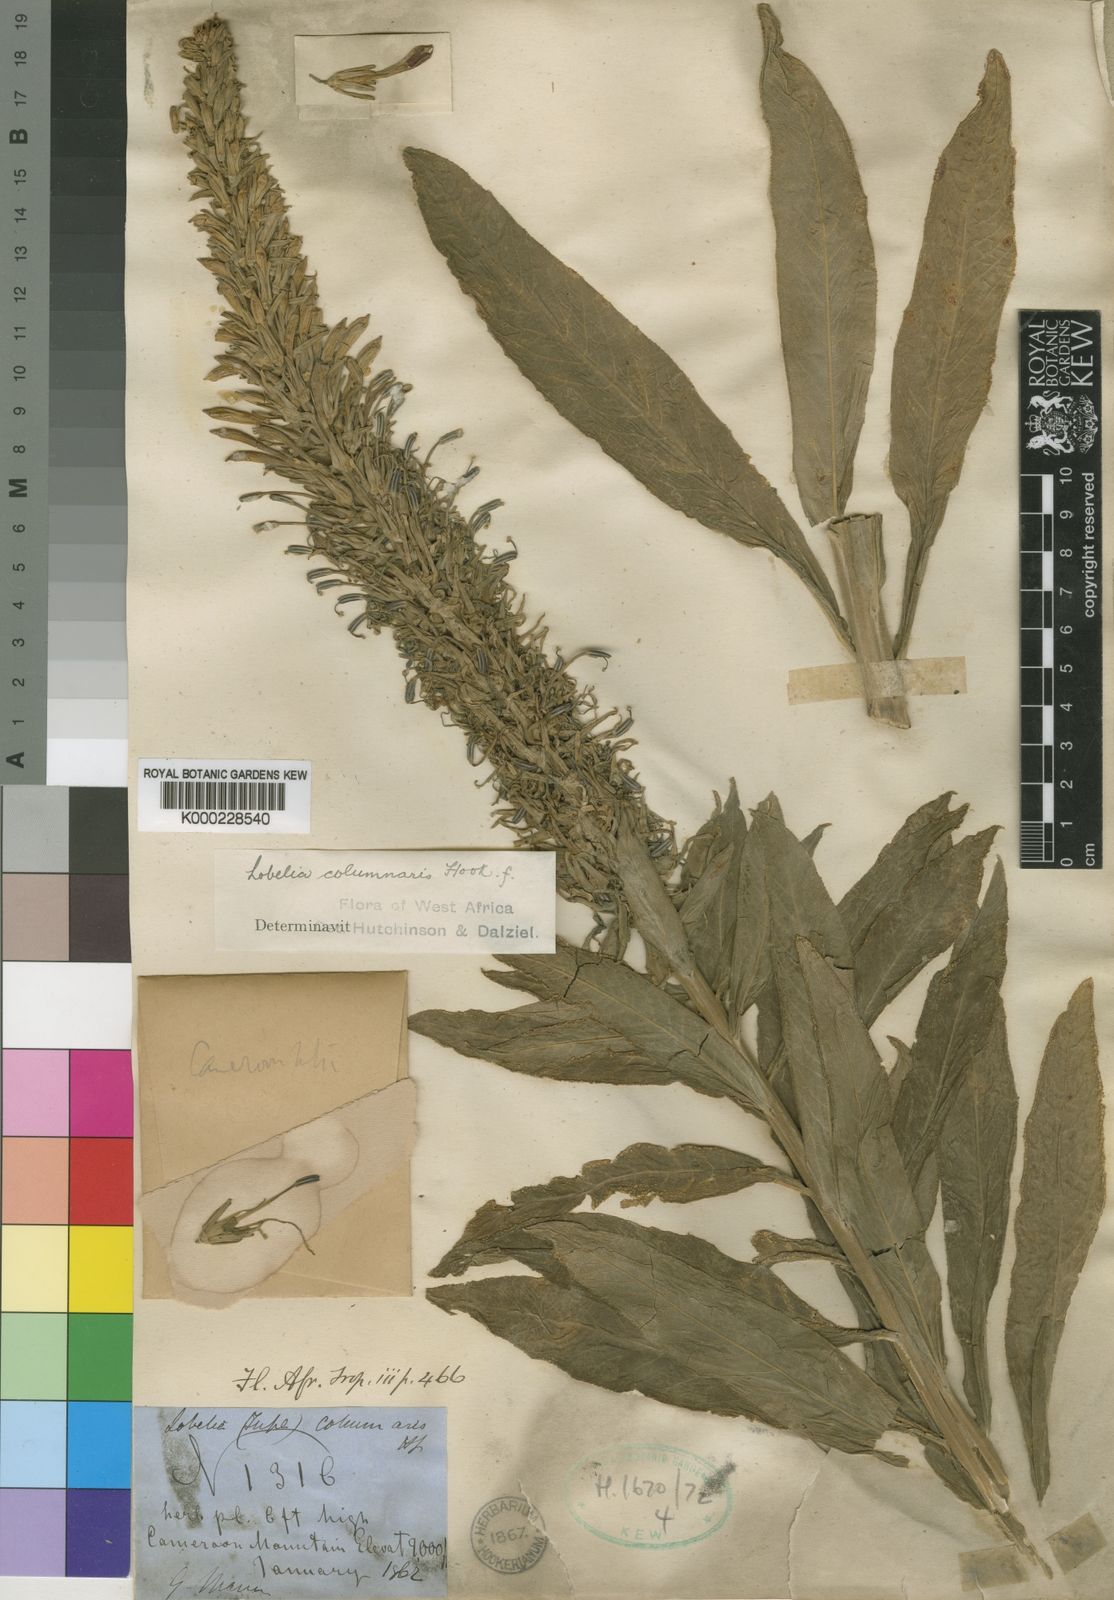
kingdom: Plantae
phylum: Tracheophyta
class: Magnoliopsida
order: Asterales
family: Campanulaceae
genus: Lobelia
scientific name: Lobelia columnaris
